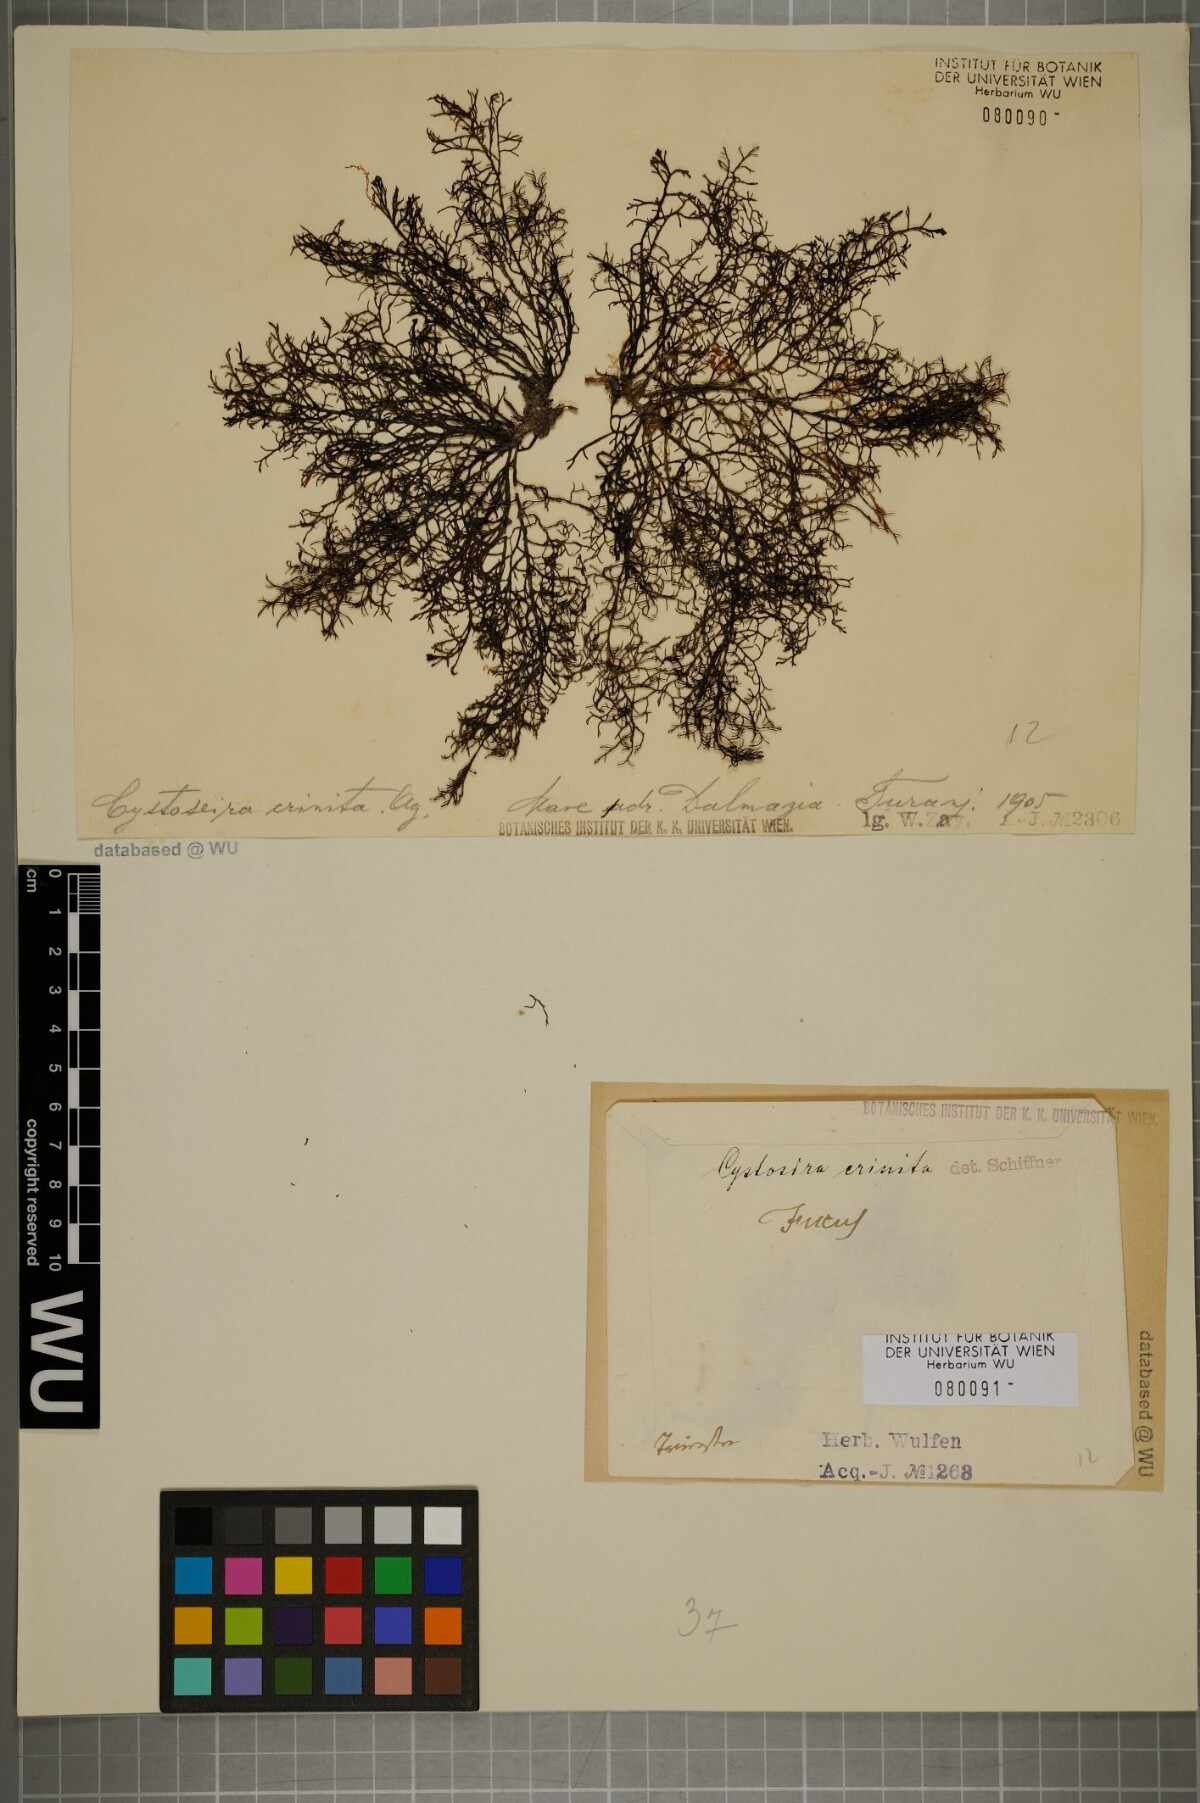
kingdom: Chromista
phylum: Ochrophyta
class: Phaeophyceae
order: Fucales
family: Sargassaceae
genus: Cystoseira
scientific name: Cystoseira Ericaria crinita
